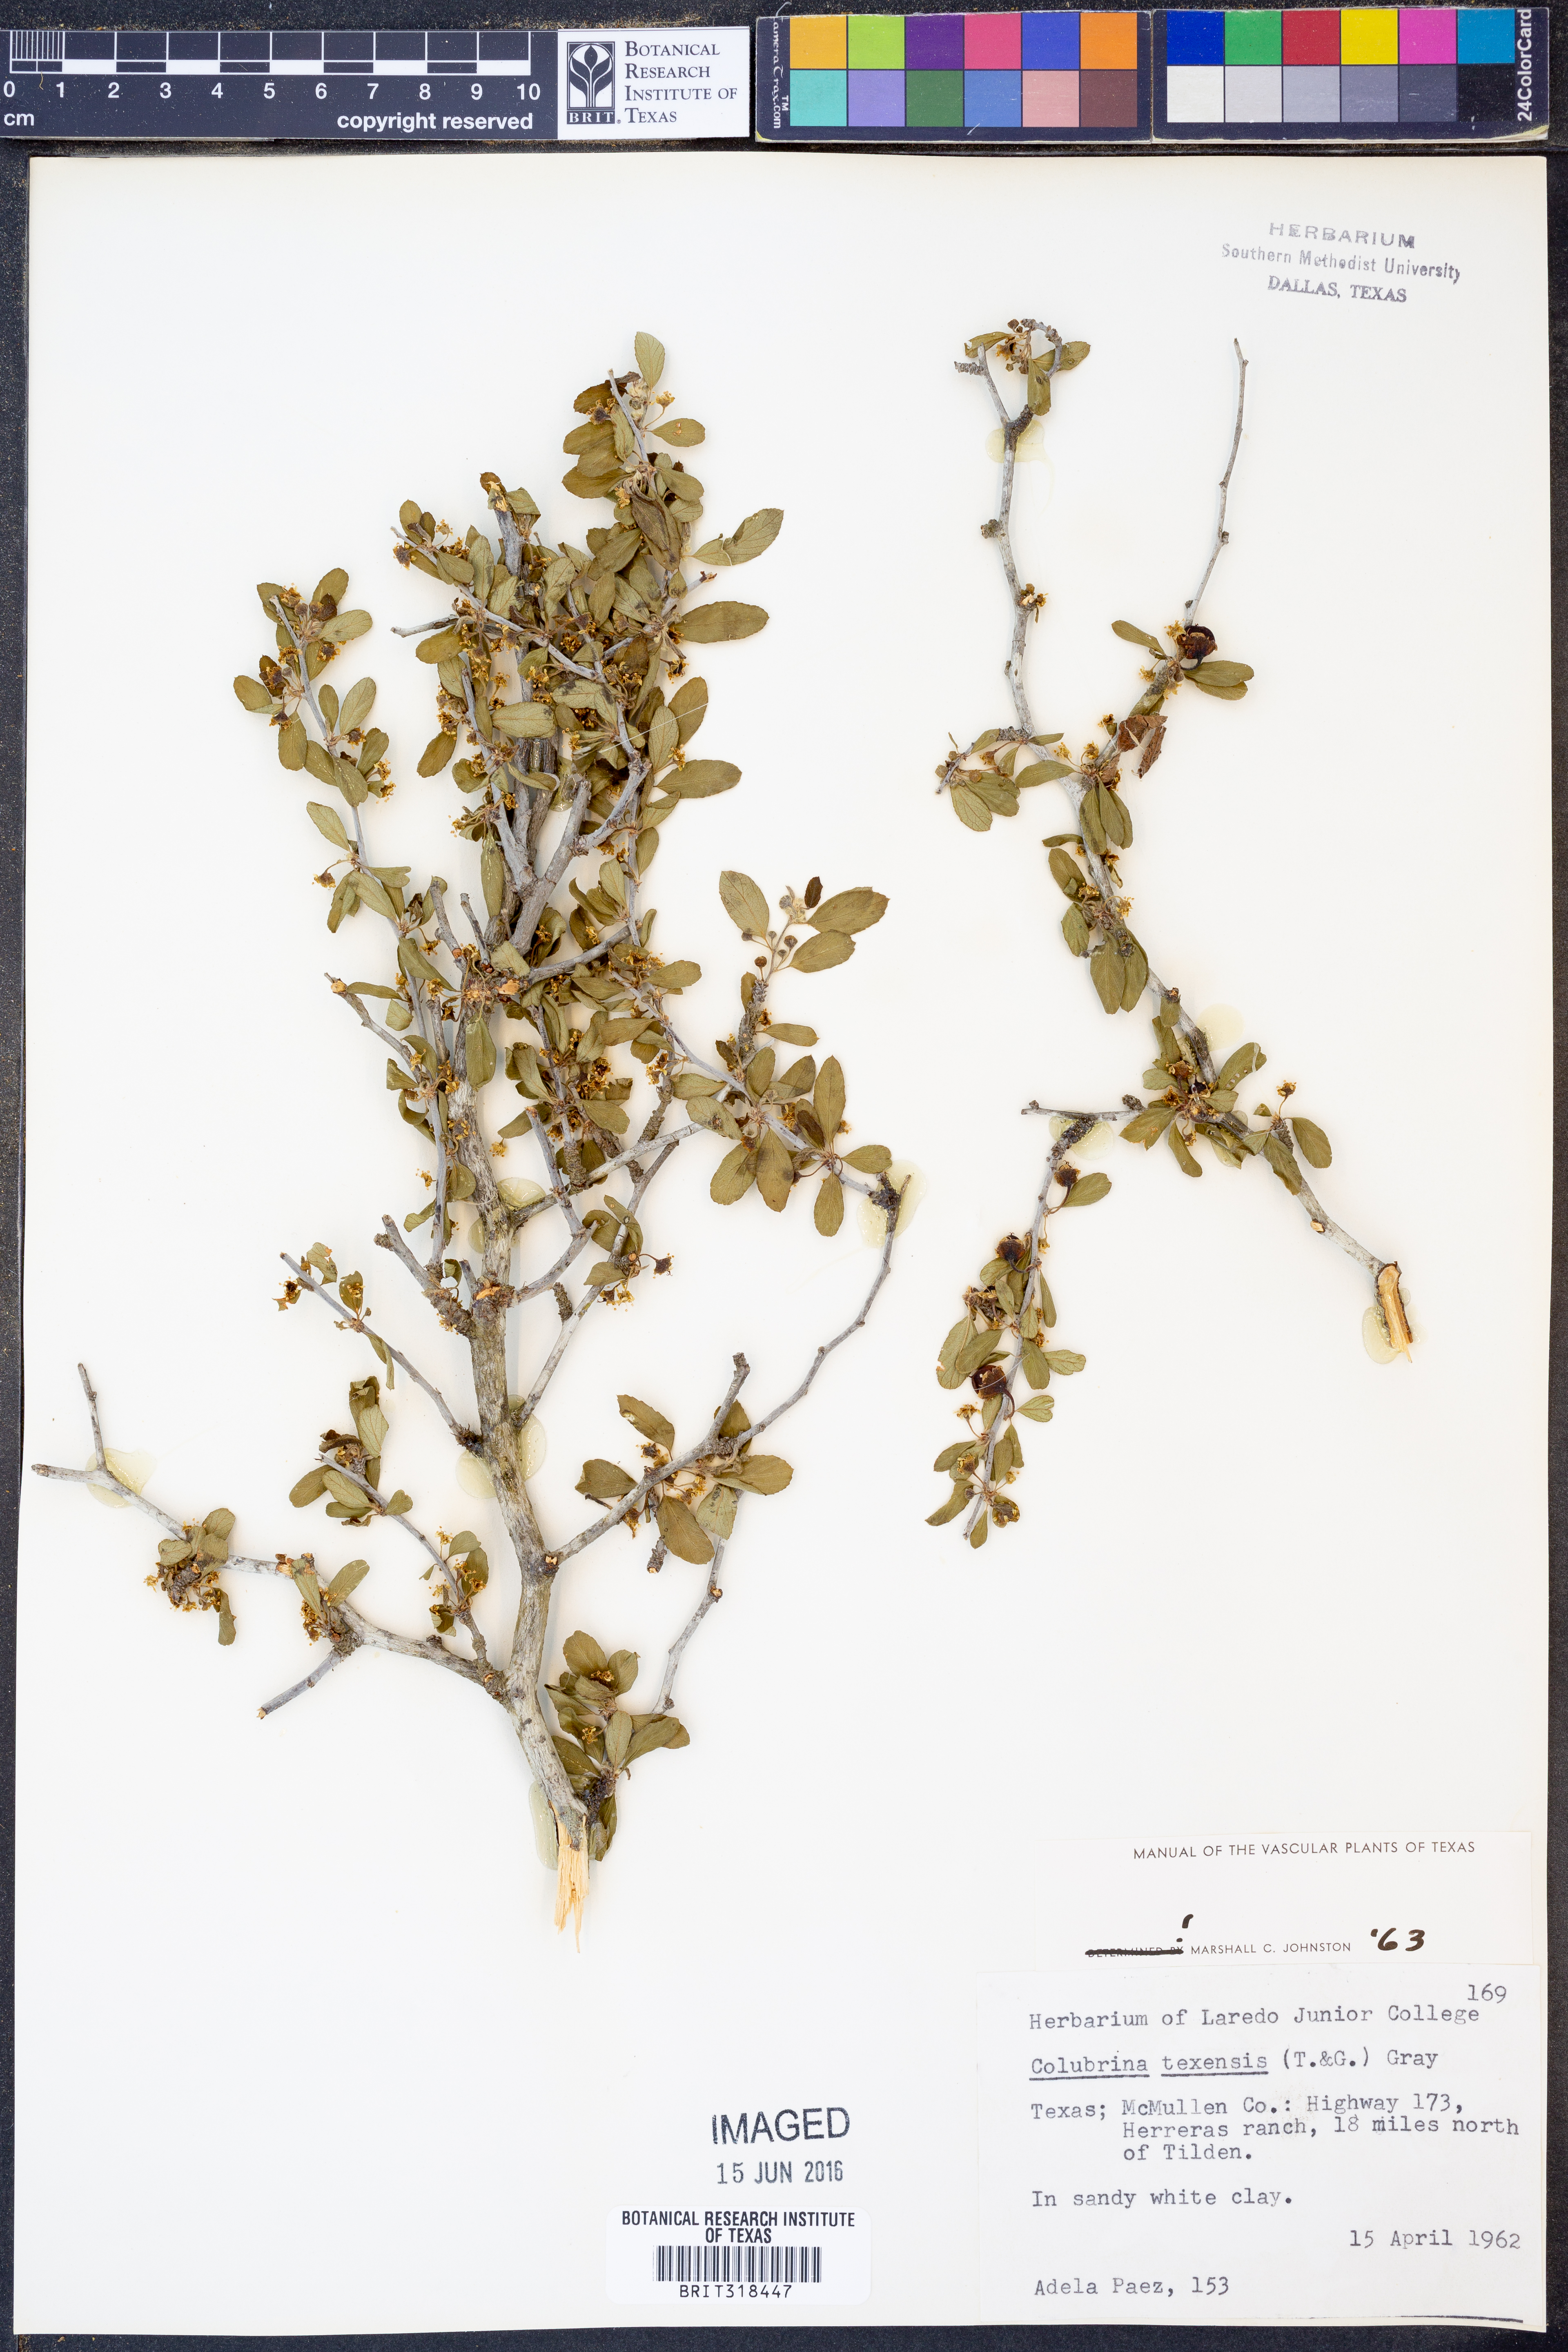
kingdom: Plantae
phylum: Tracheophyta
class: Magnoliopsida
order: Rosales
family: Rhamnaceae
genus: Colubrina
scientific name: Colubrina texensis
